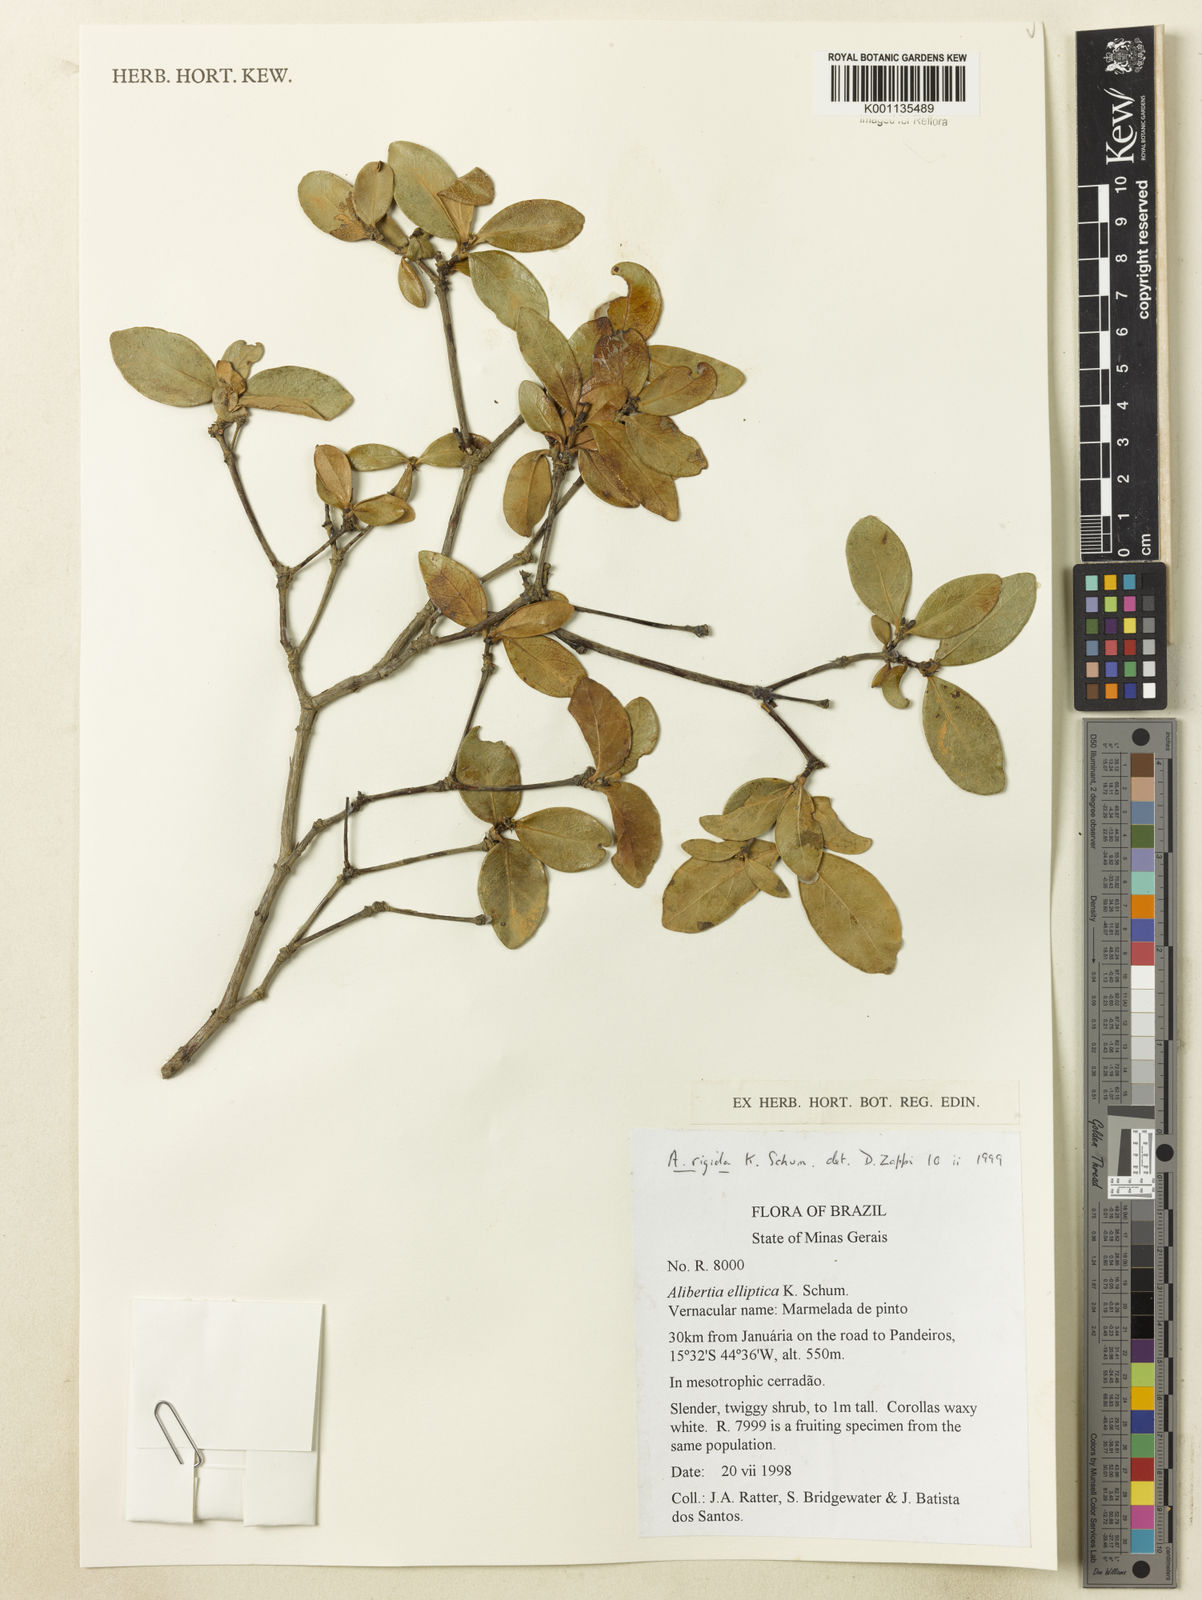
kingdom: Plantae
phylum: Tracheophyta
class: Magnoliopsida
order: Gentianales
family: Rubiaceae
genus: Cordiera
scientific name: Cordiera rigida
